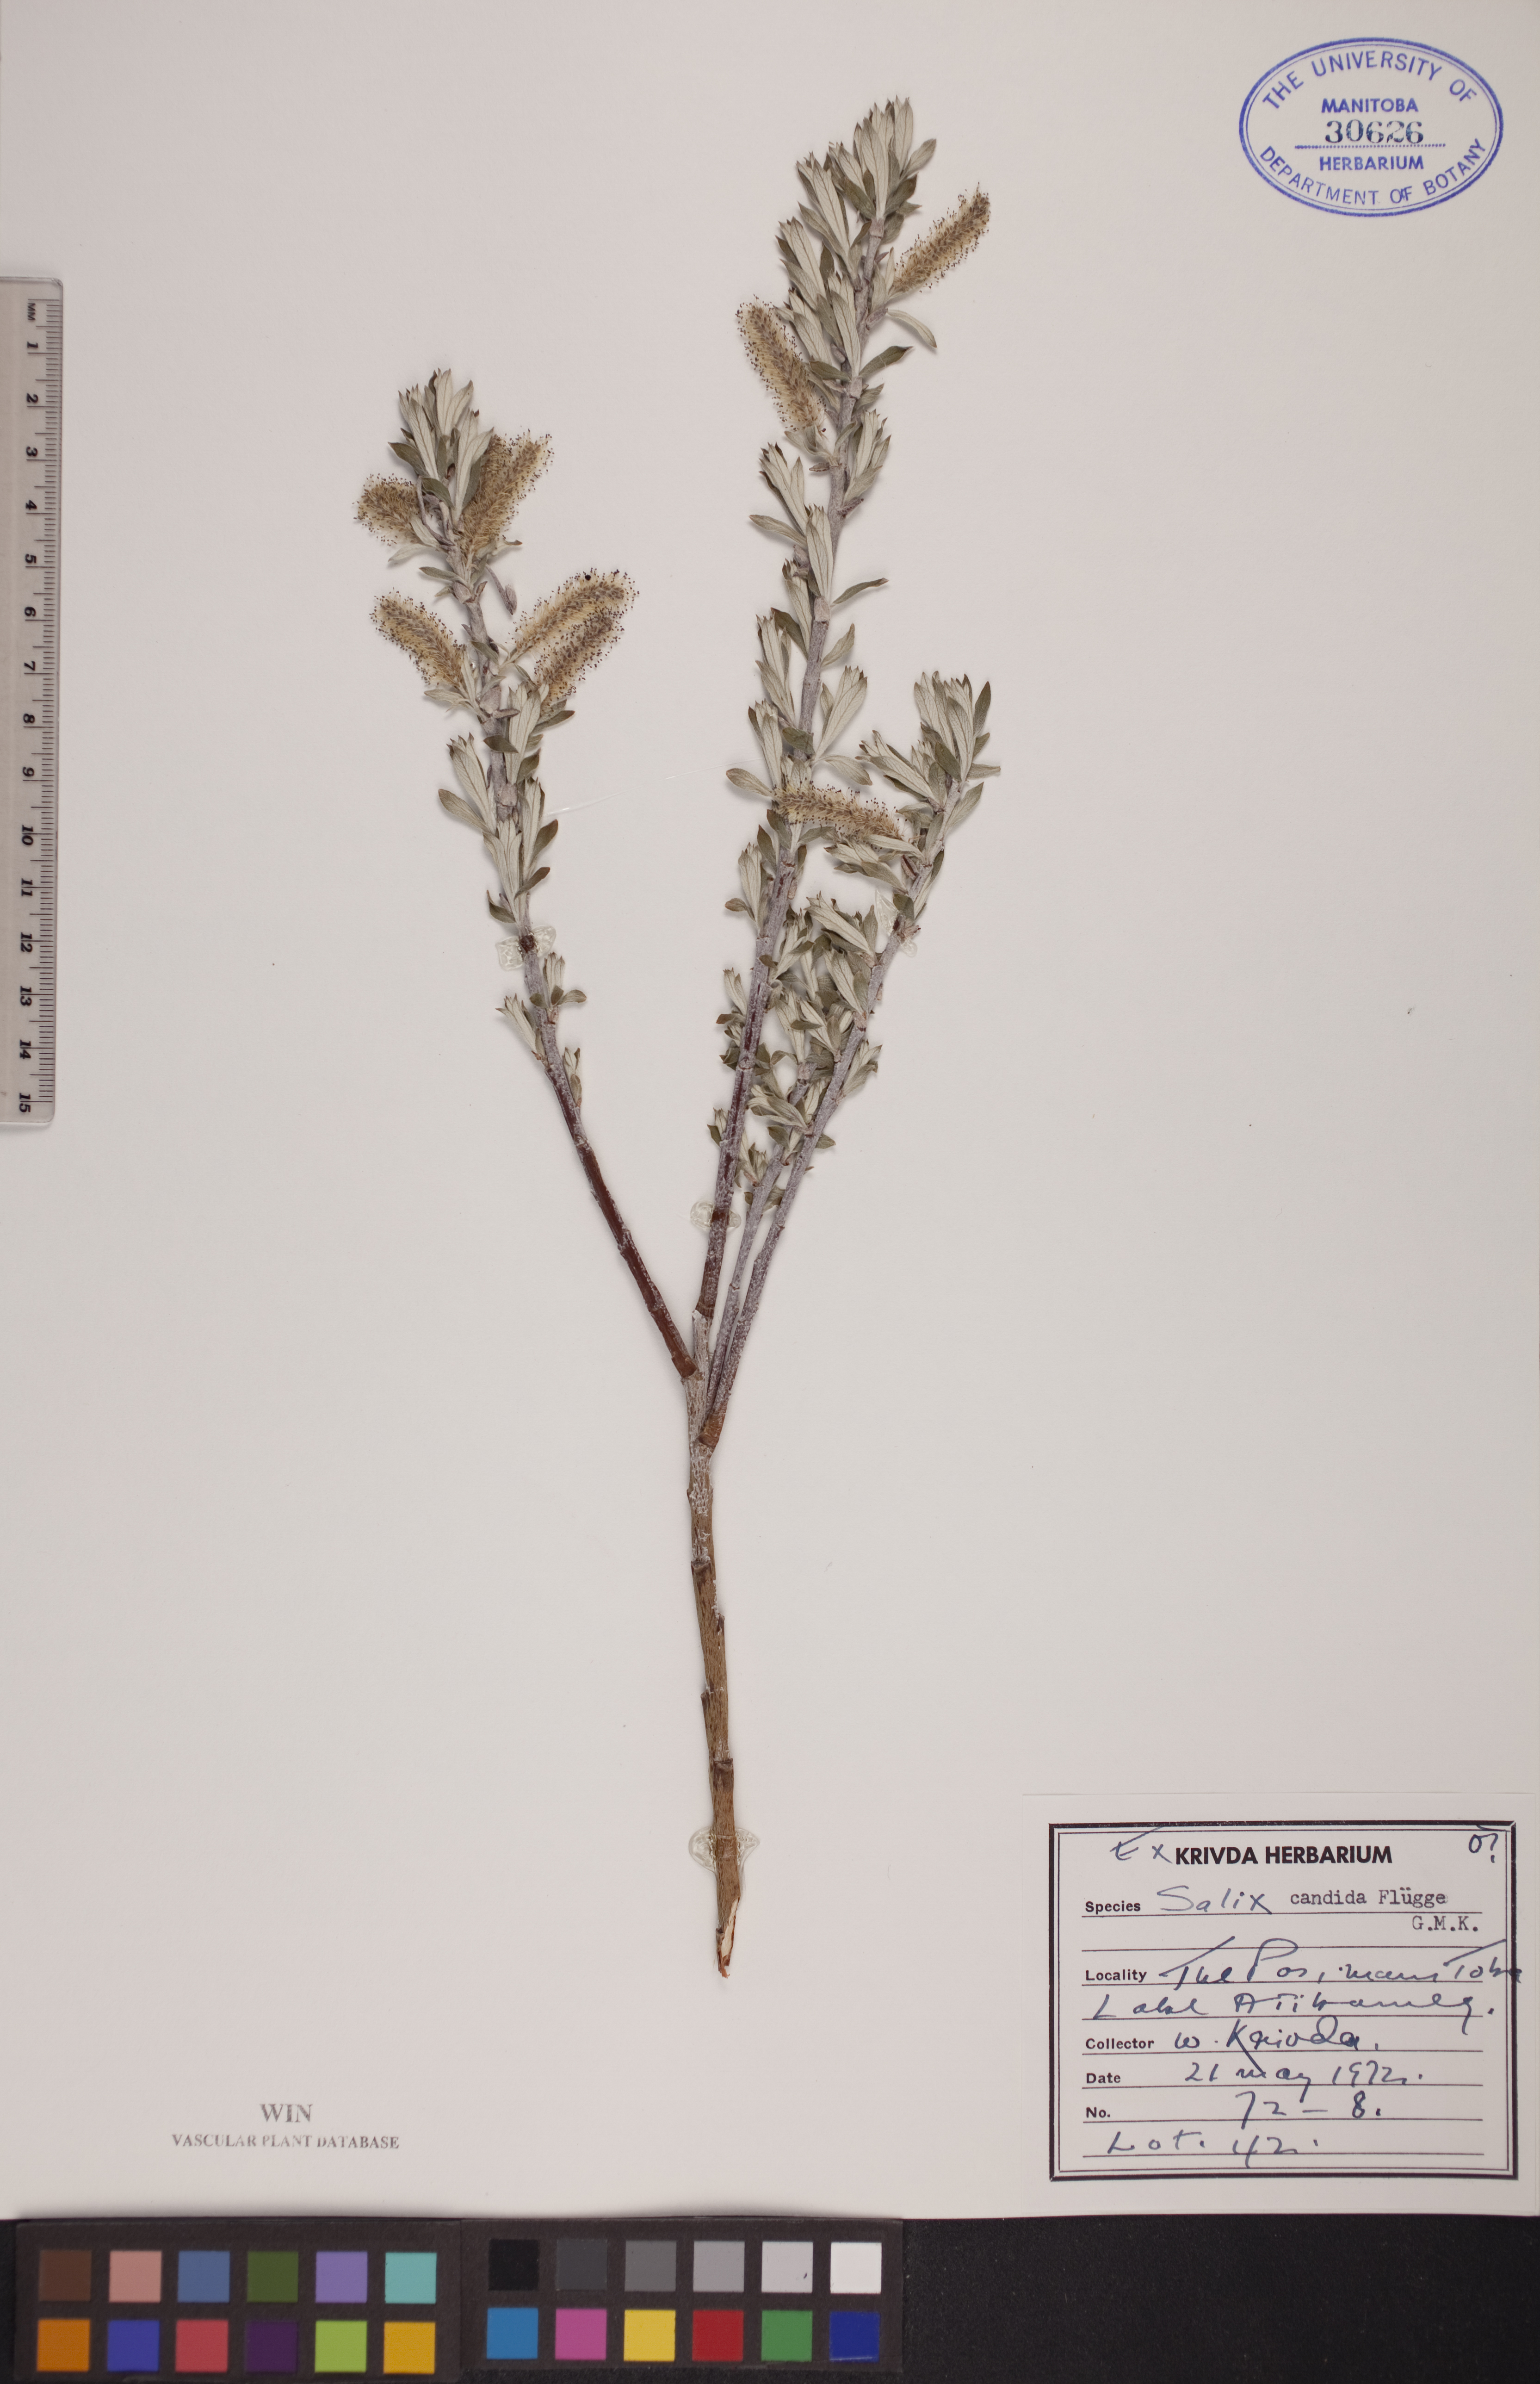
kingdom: Plantae
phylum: Tracheophyta
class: Magnoliopsida
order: Malpighiales
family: Salicaceae
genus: Salix
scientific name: Salix candida
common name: Hoary willow
